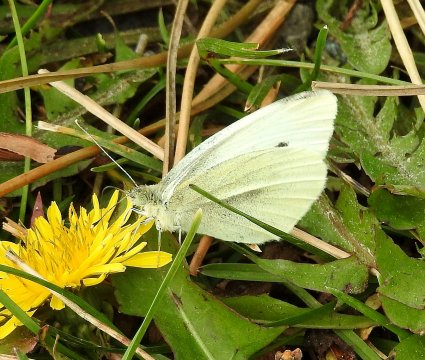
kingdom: Animalia
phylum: Arthropoda
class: Insecta
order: Lepidoptera
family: Pieridae
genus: Pieris
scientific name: Pieris rapae
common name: Cabbage White
